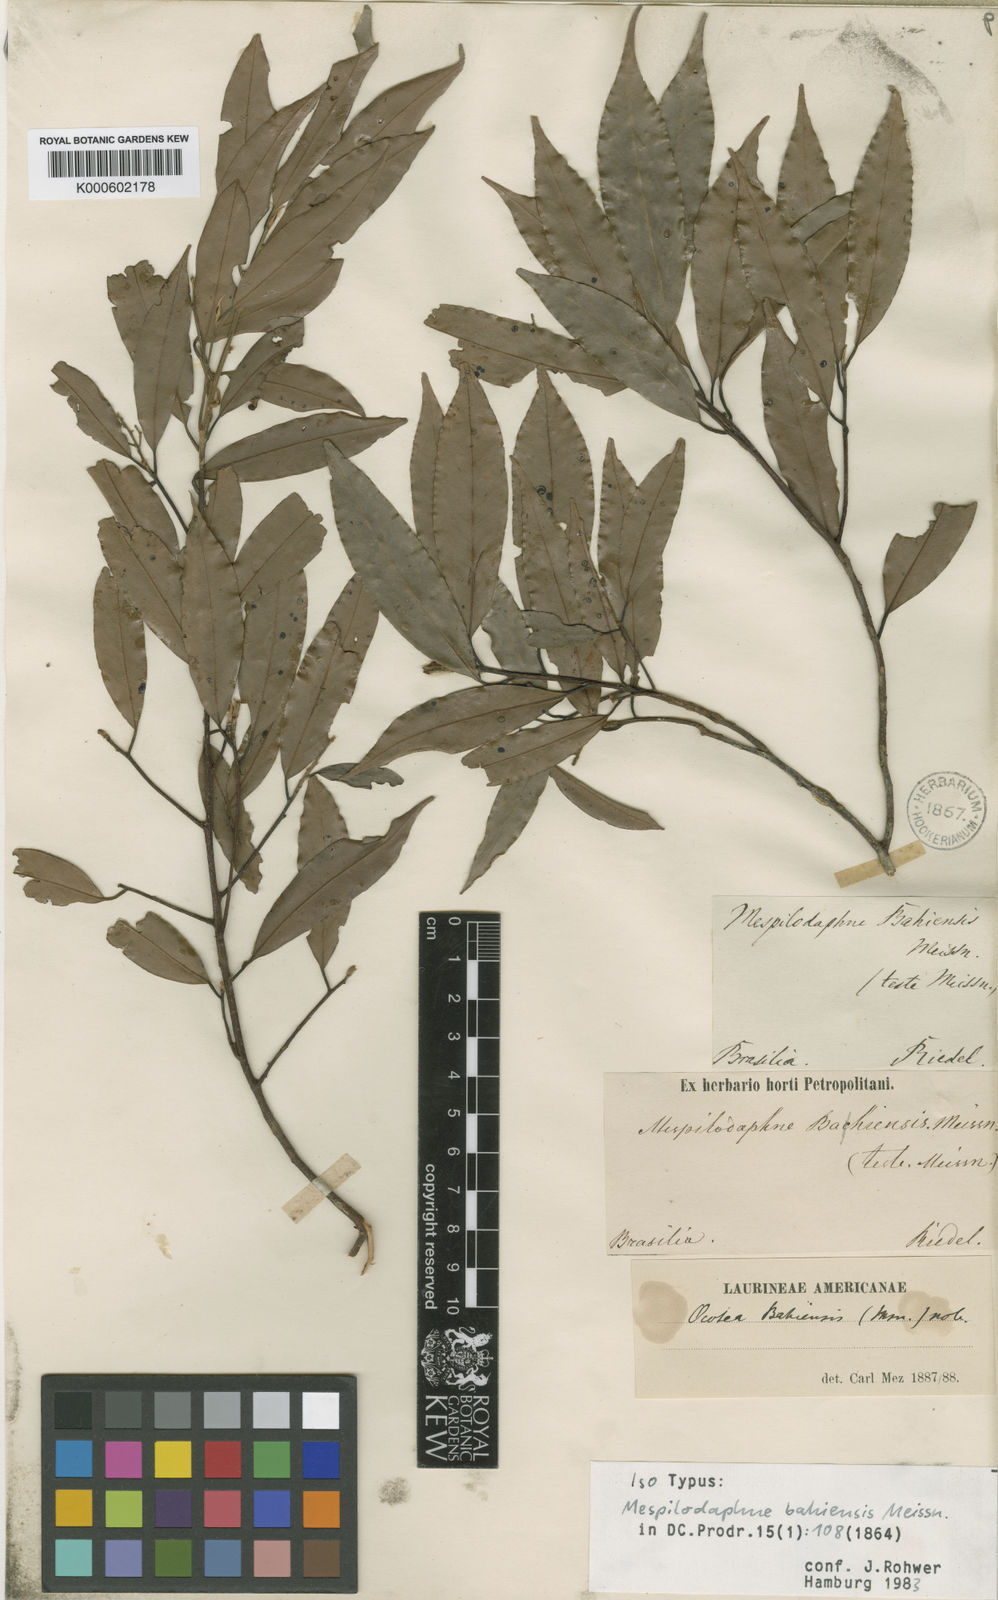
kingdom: Plantae
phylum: Tracheophyta
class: Magnoliopsida
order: Laurales
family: Lauraceae
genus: Urbanodendron
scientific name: Urbanodendron bahiense
